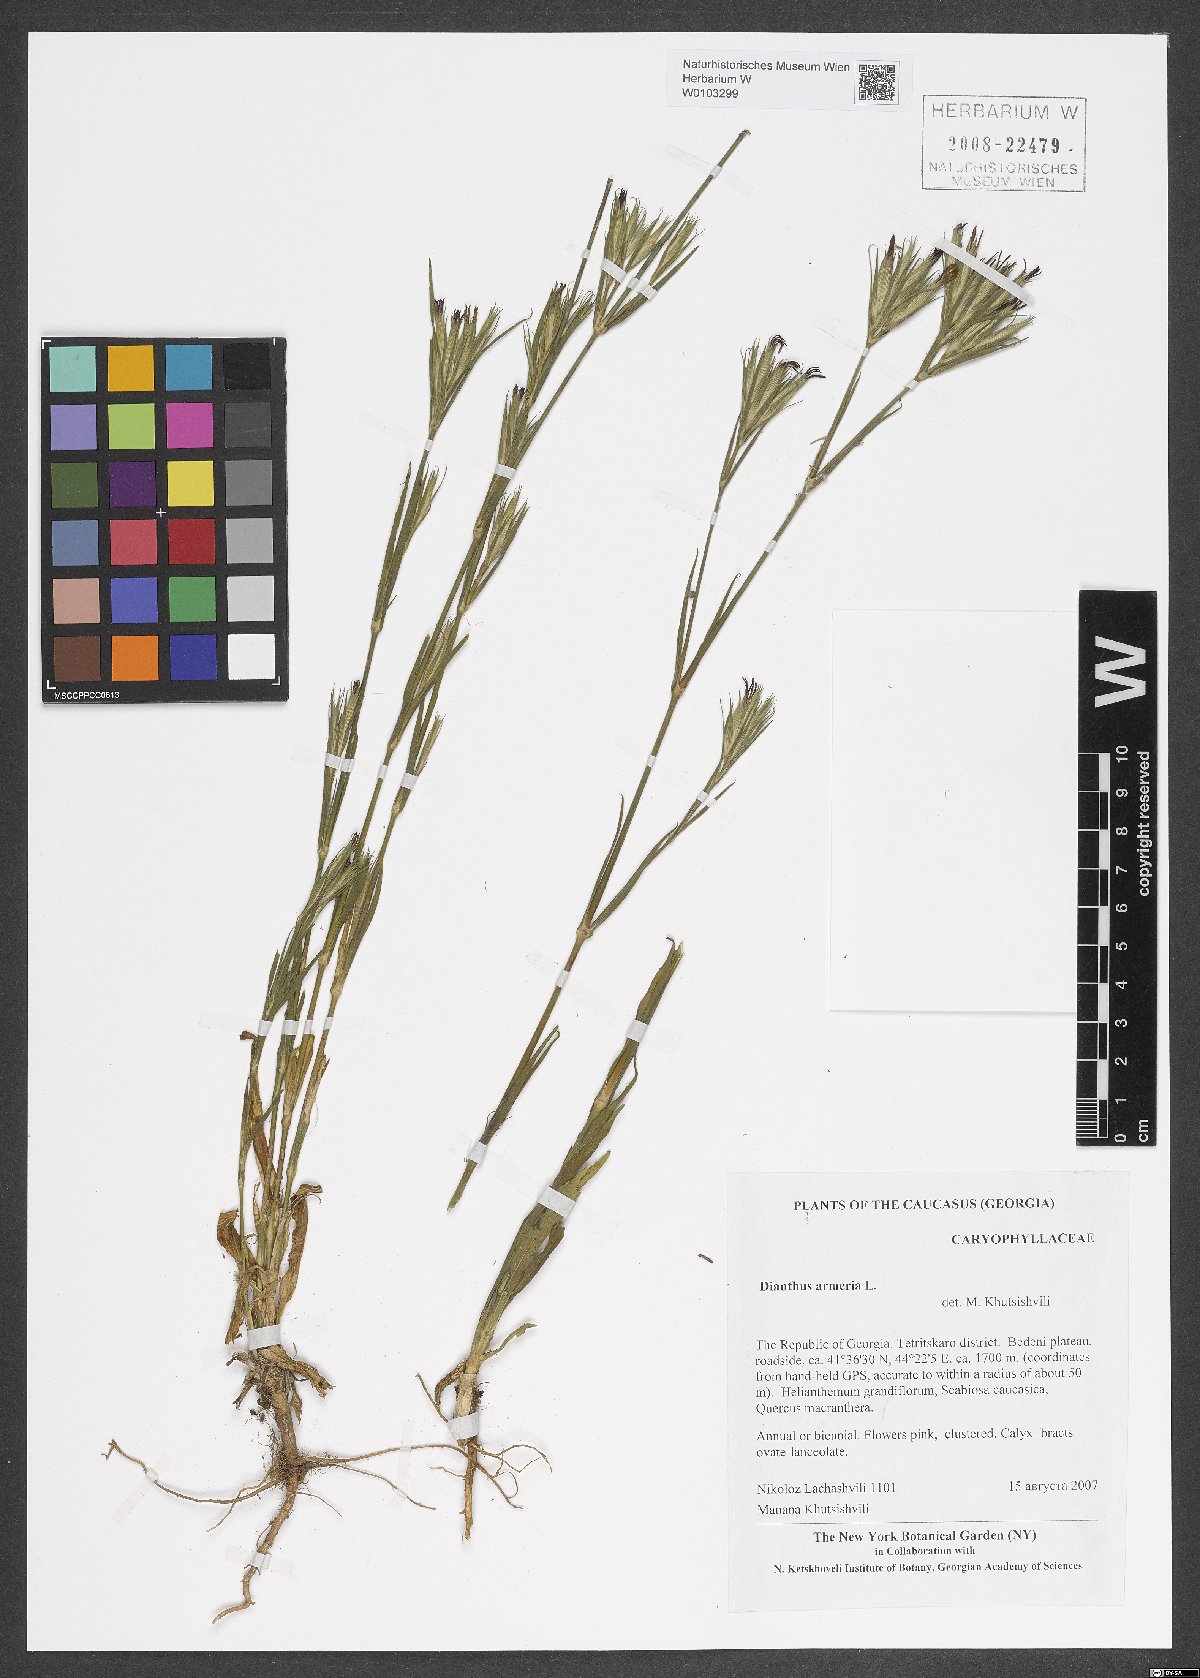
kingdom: Plantae
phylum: Tracheophyta
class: Magnoliopsida
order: Caryophyllales
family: Caryophyllaceae
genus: Dianthus
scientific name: Dianthus armeria
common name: Deptford pink
